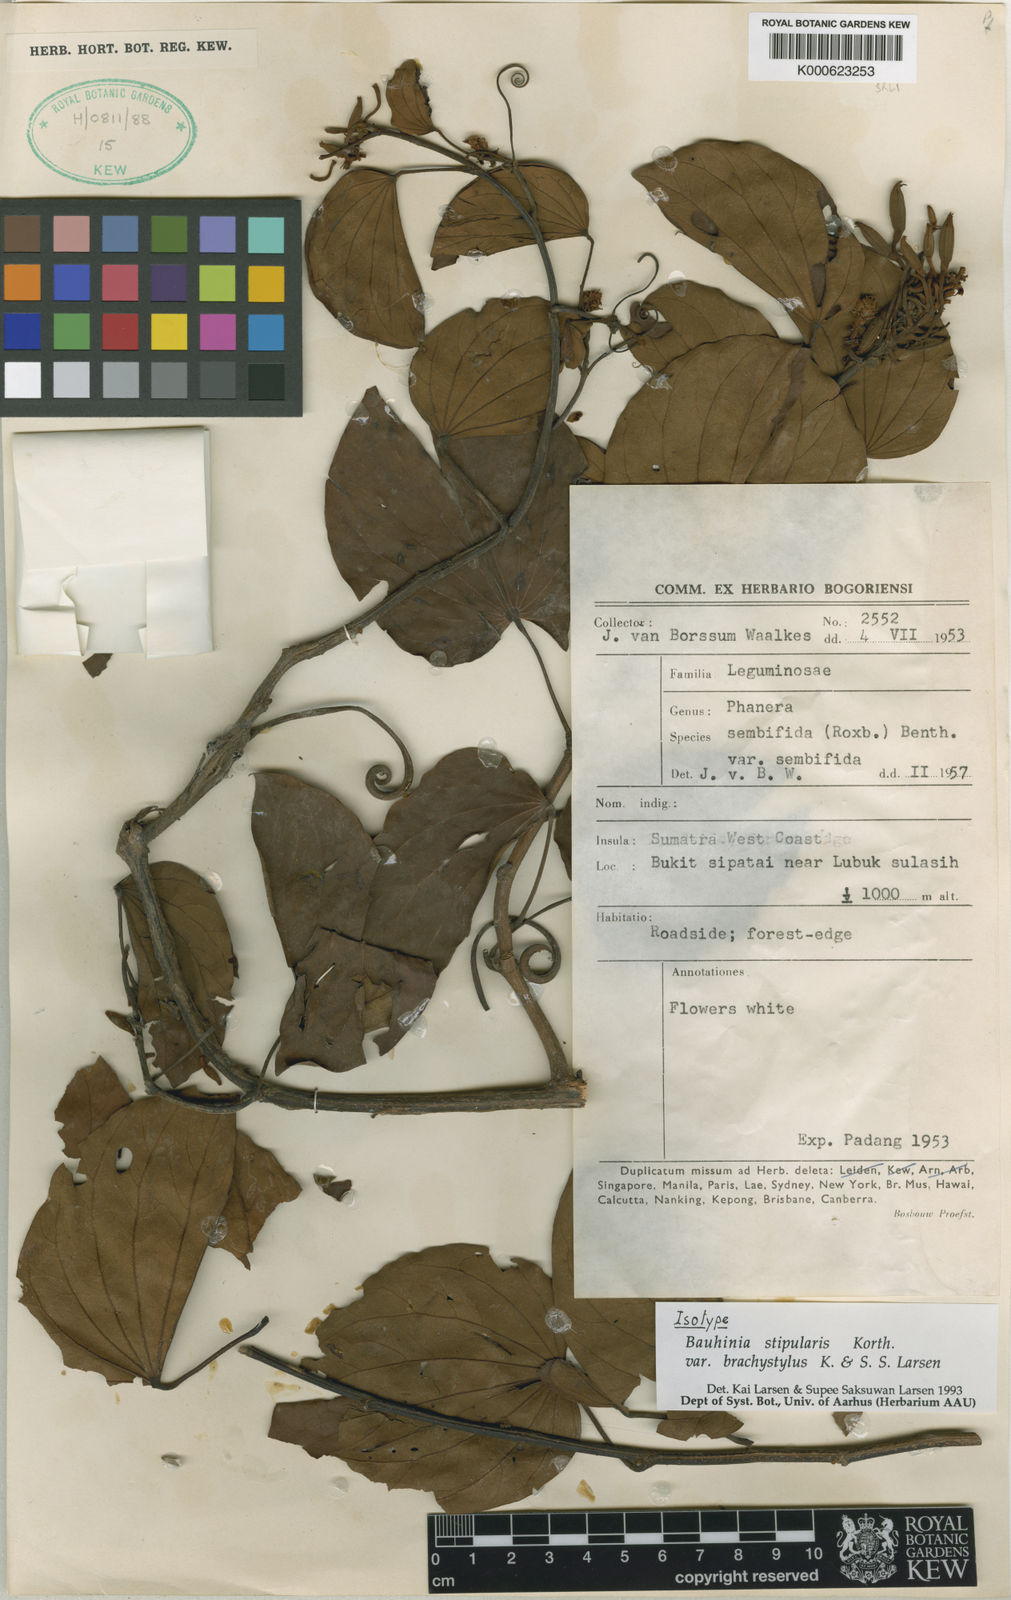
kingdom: Plantae
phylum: Tracheophyta
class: Magnoliopsida
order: Fabales
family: Fabaceae
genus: Phanera
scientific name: Phanera stipularis
